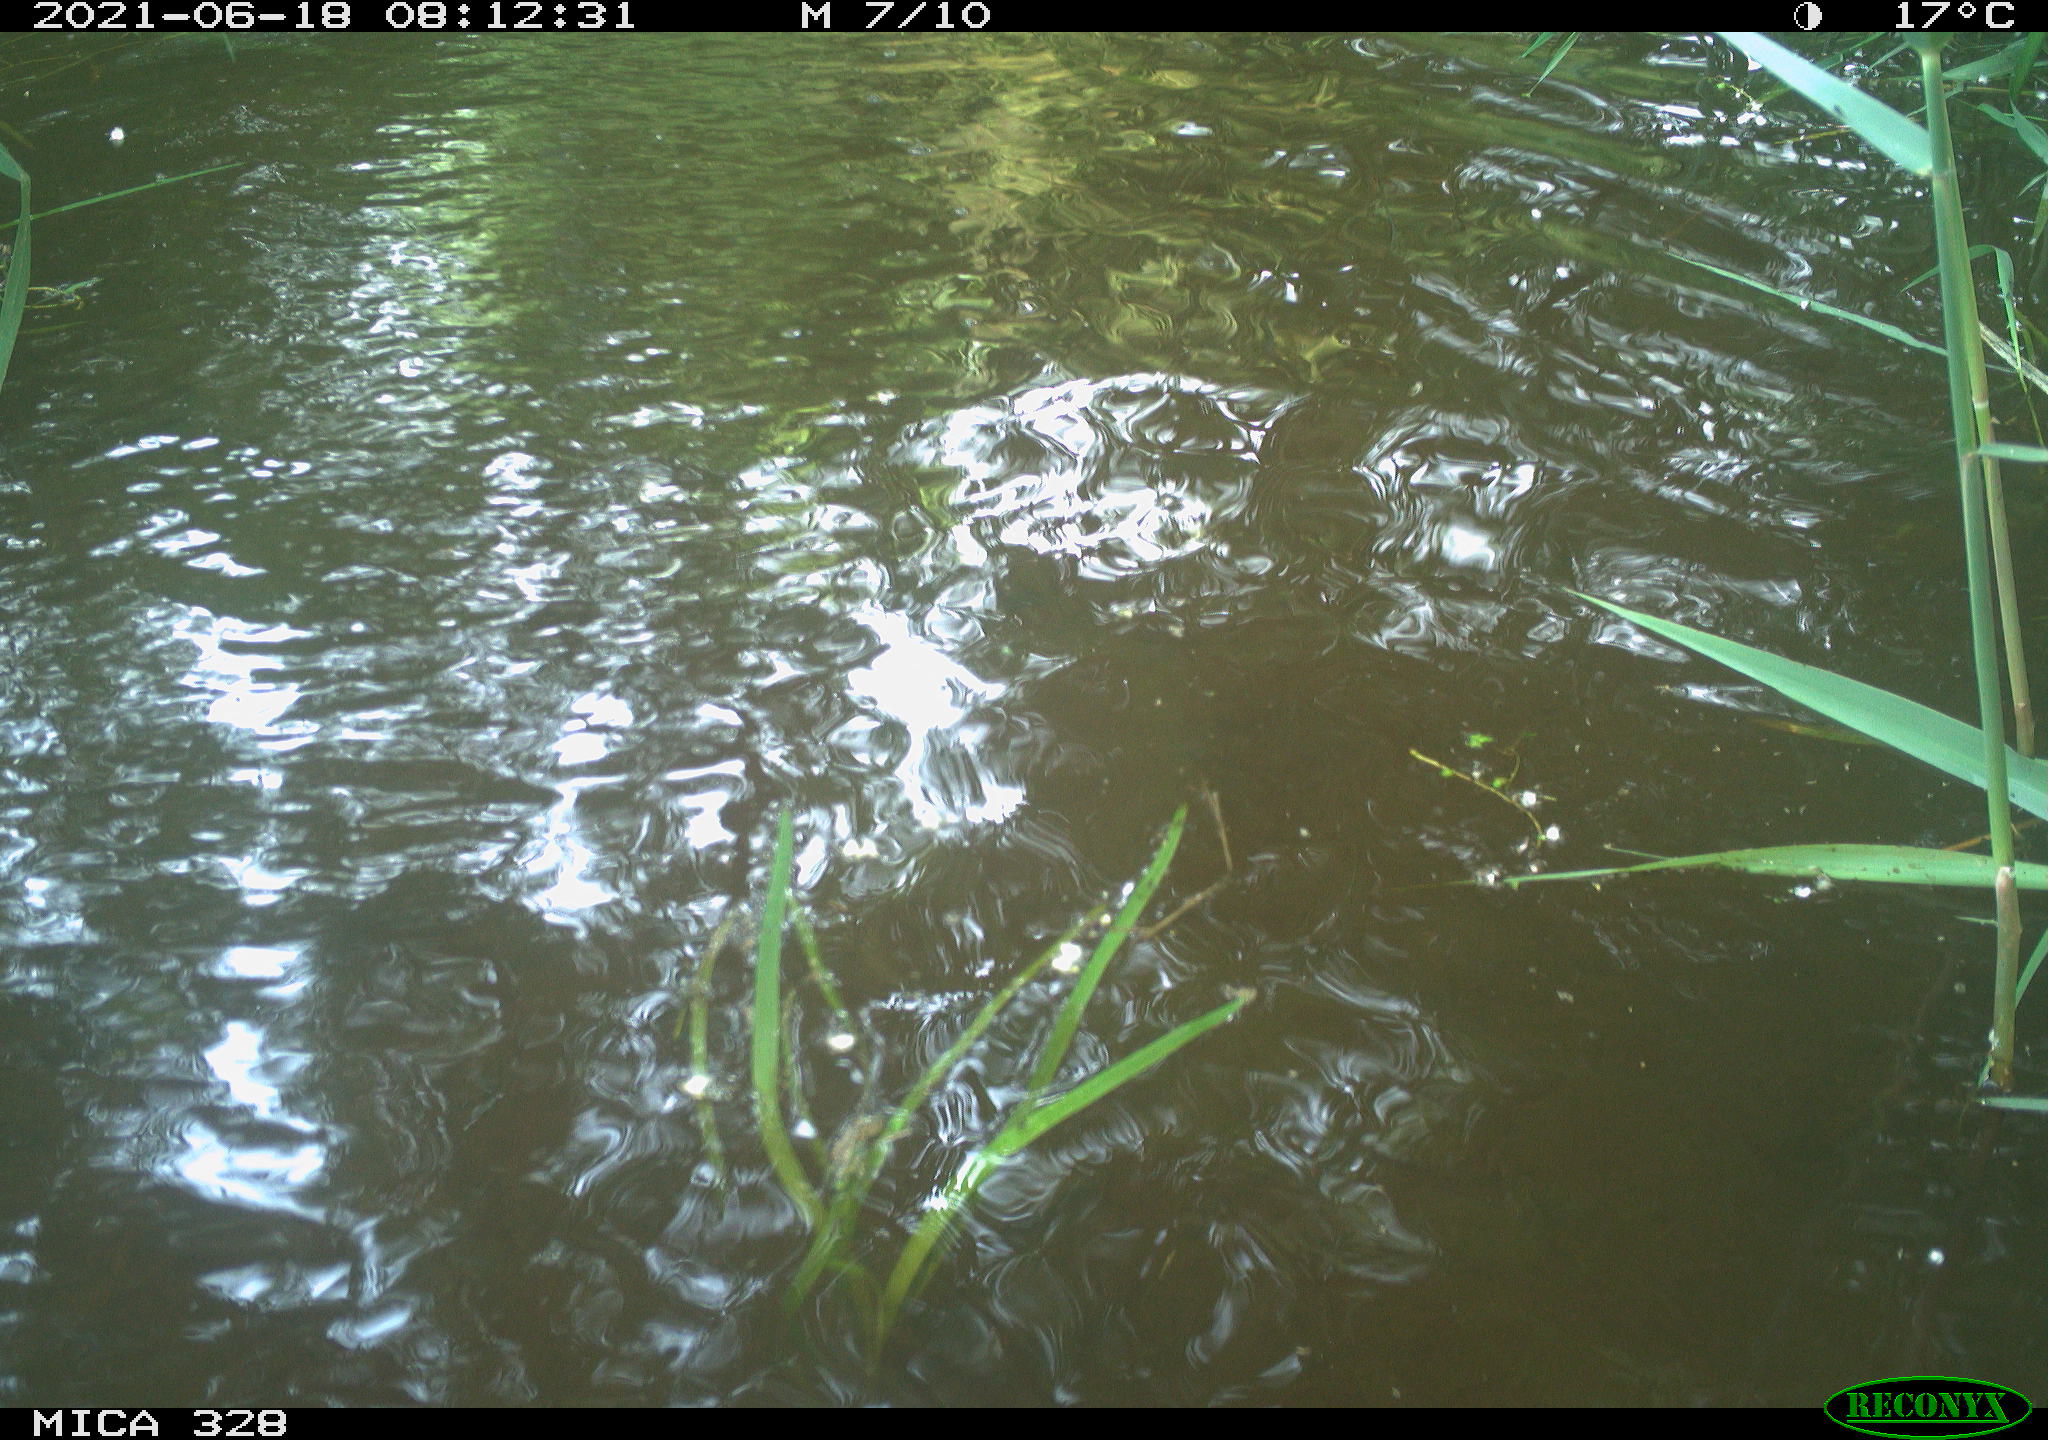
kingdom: Animalia
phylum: Chordata
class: Mammalia
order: Rodentia
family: Cricetidae
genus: Ondatra
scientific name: Ondatra zibethicus
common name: Muskrat
